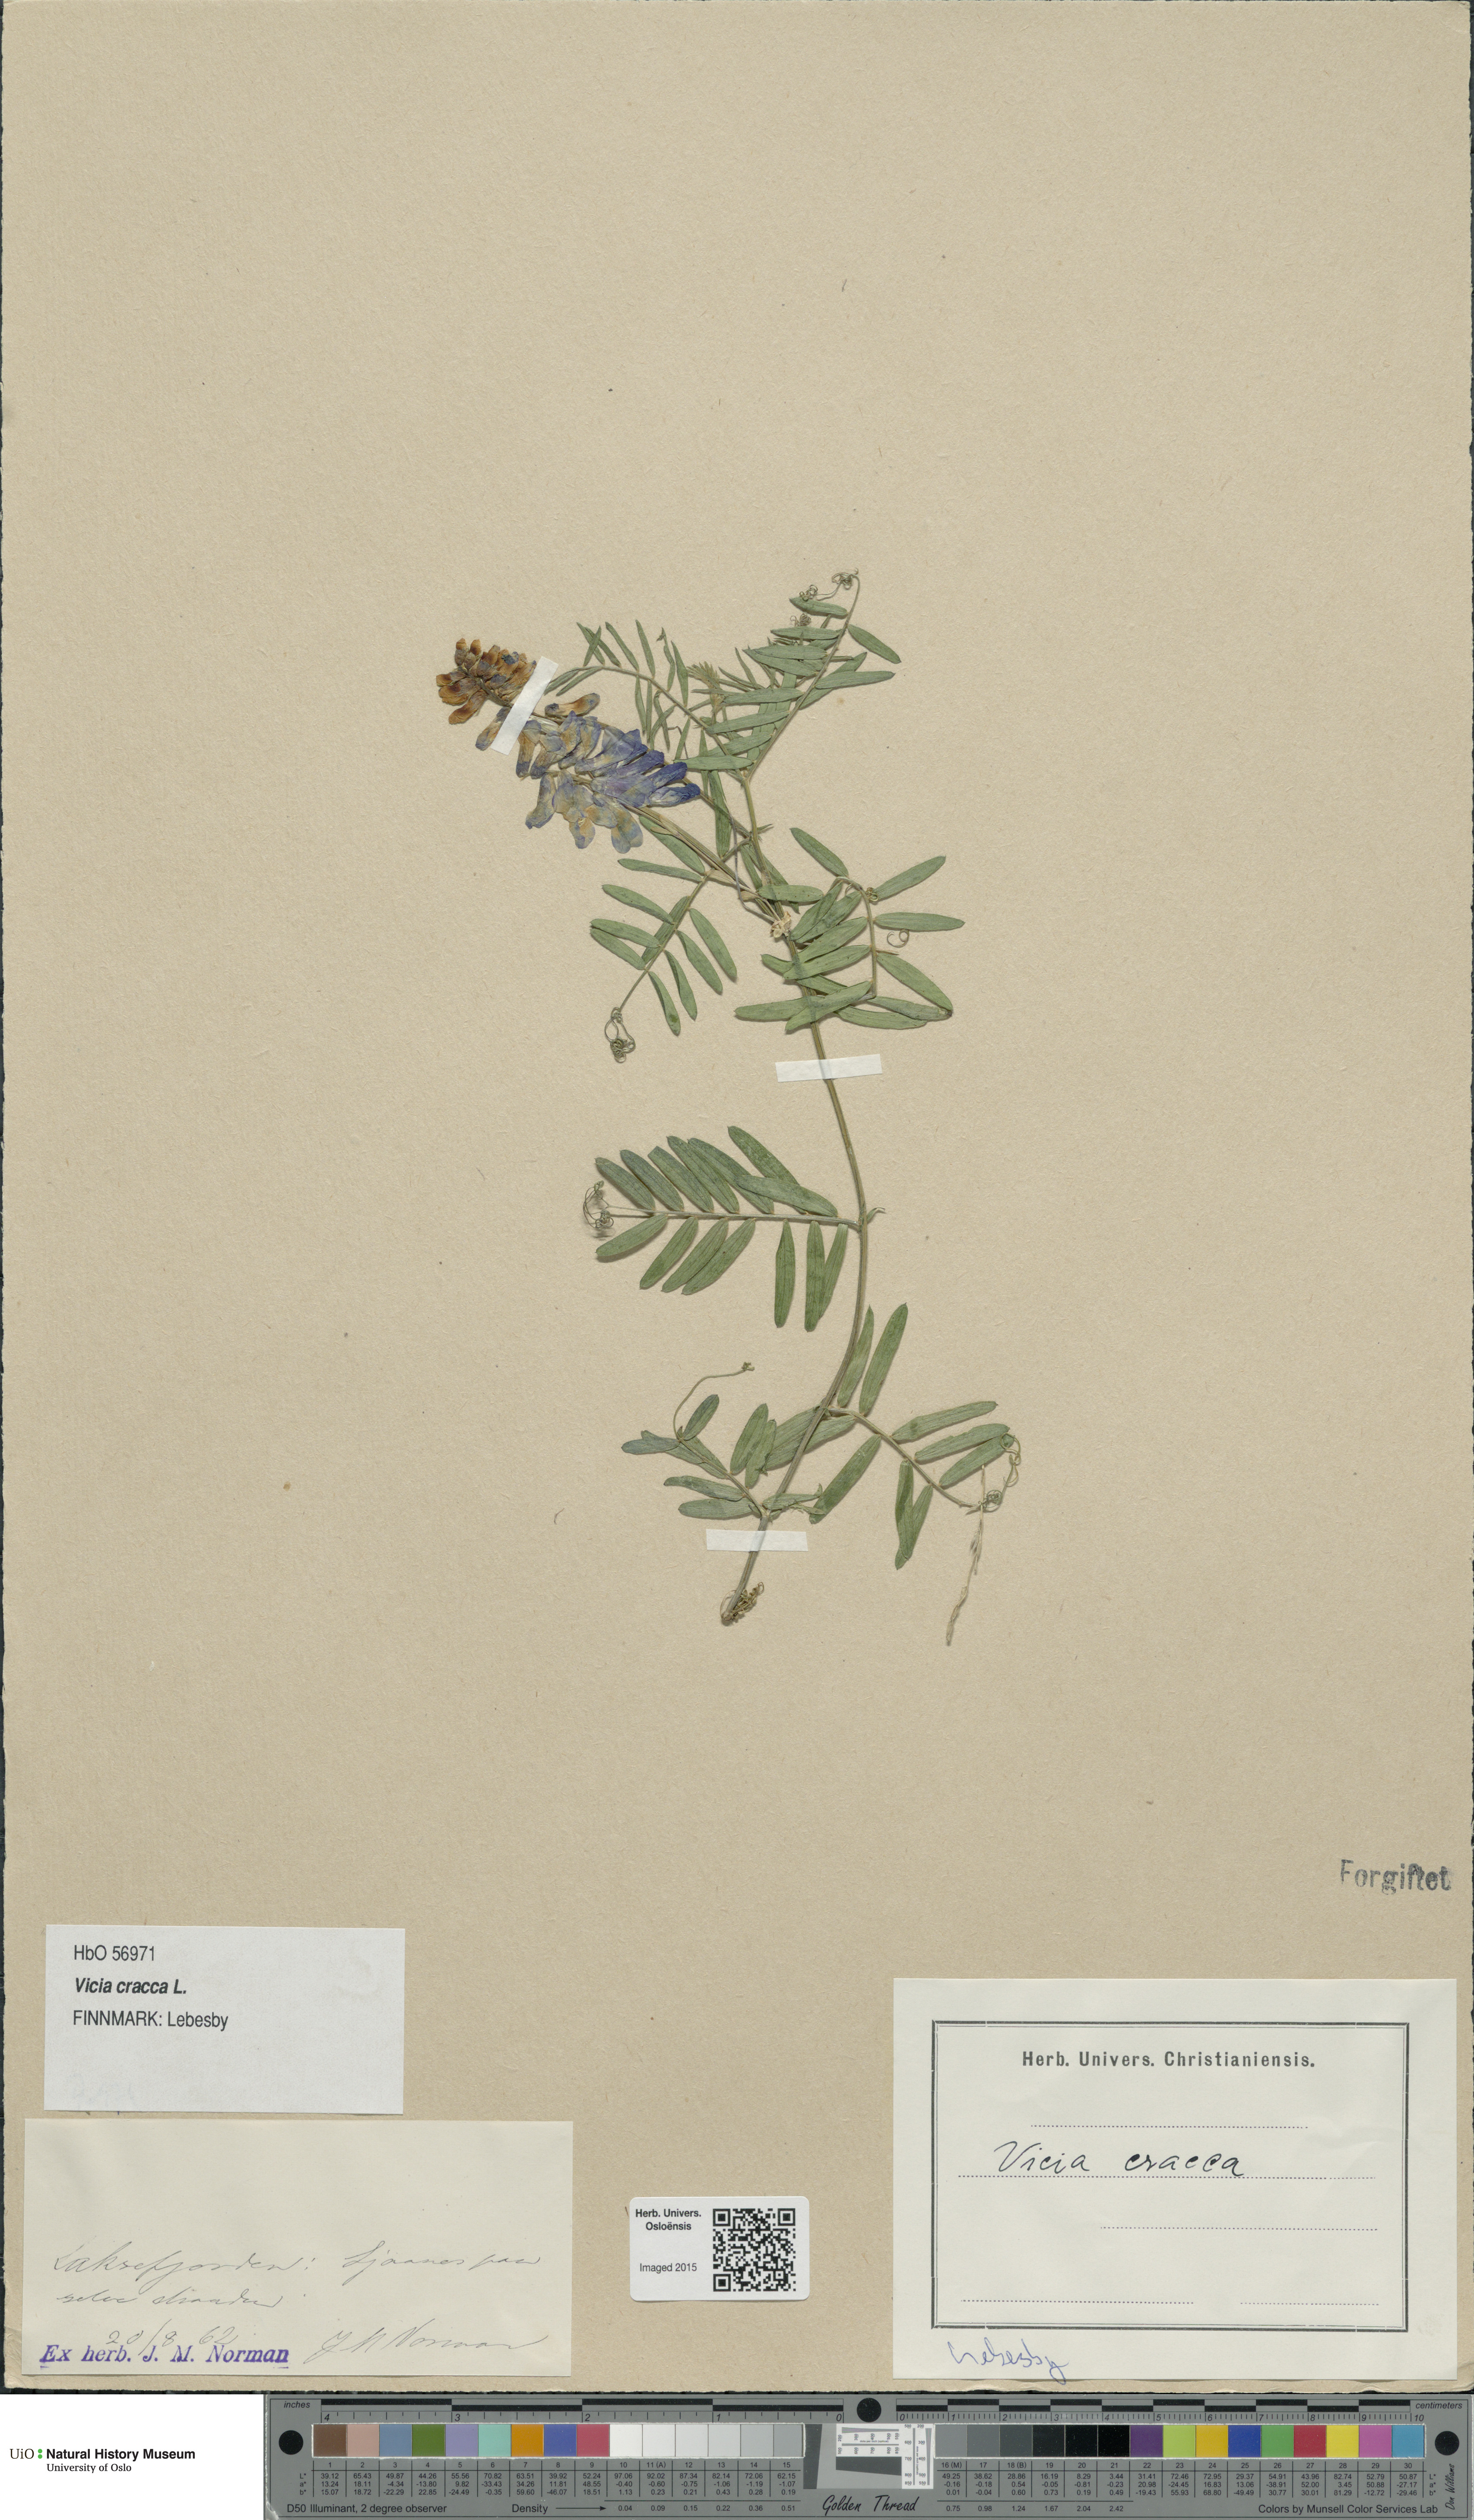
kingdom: Plantae
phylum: Tracheophyta
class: Magnoliopsida
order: Fabales
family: Fabaceae
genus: Vicia
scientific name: Vicia cracca
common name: Bird vetch
